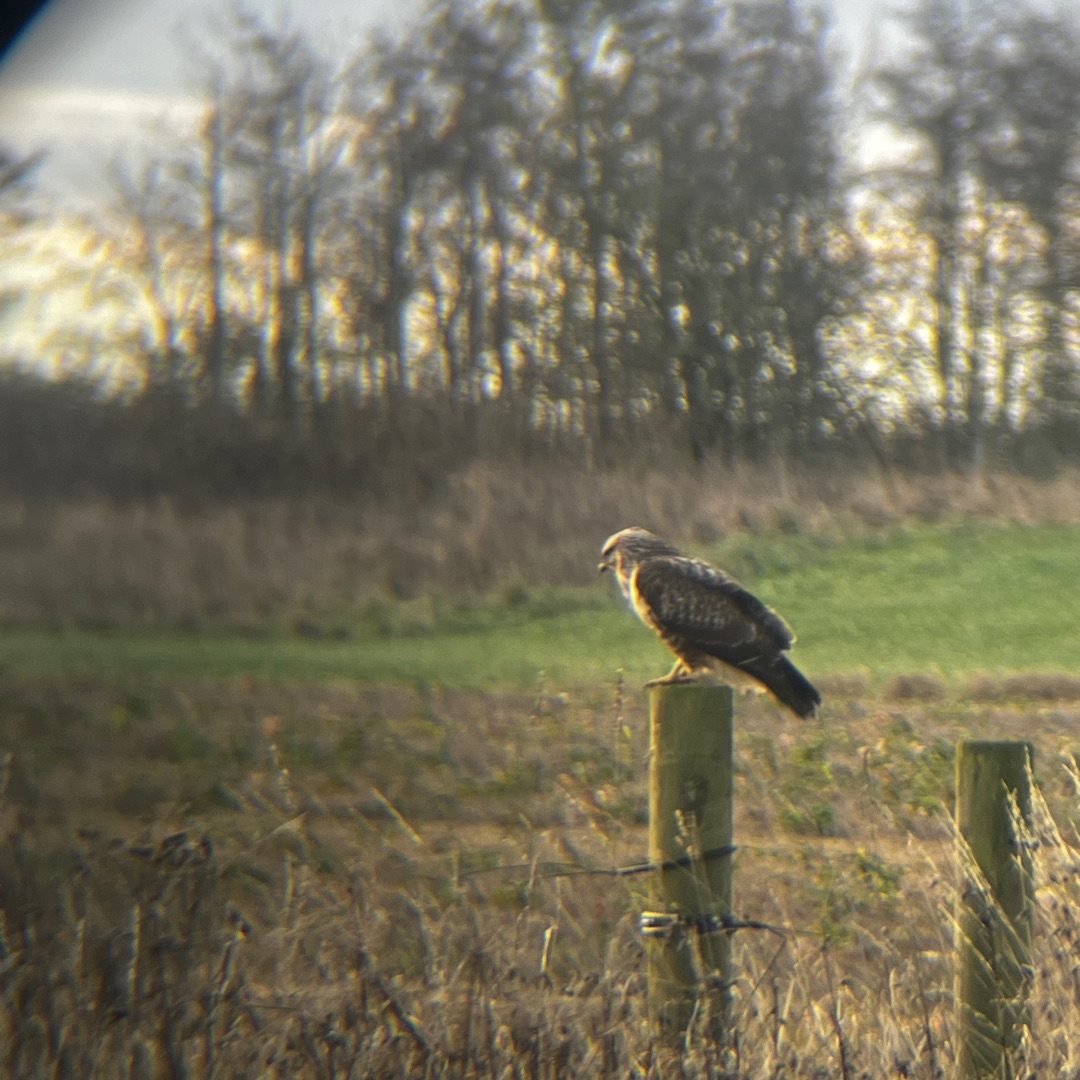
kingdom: Animalia
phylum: Chordata
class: Aves
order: Accipitriformes
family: Accipitridae
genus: Buteo
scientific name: Buteo buteo
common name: Musvåge
